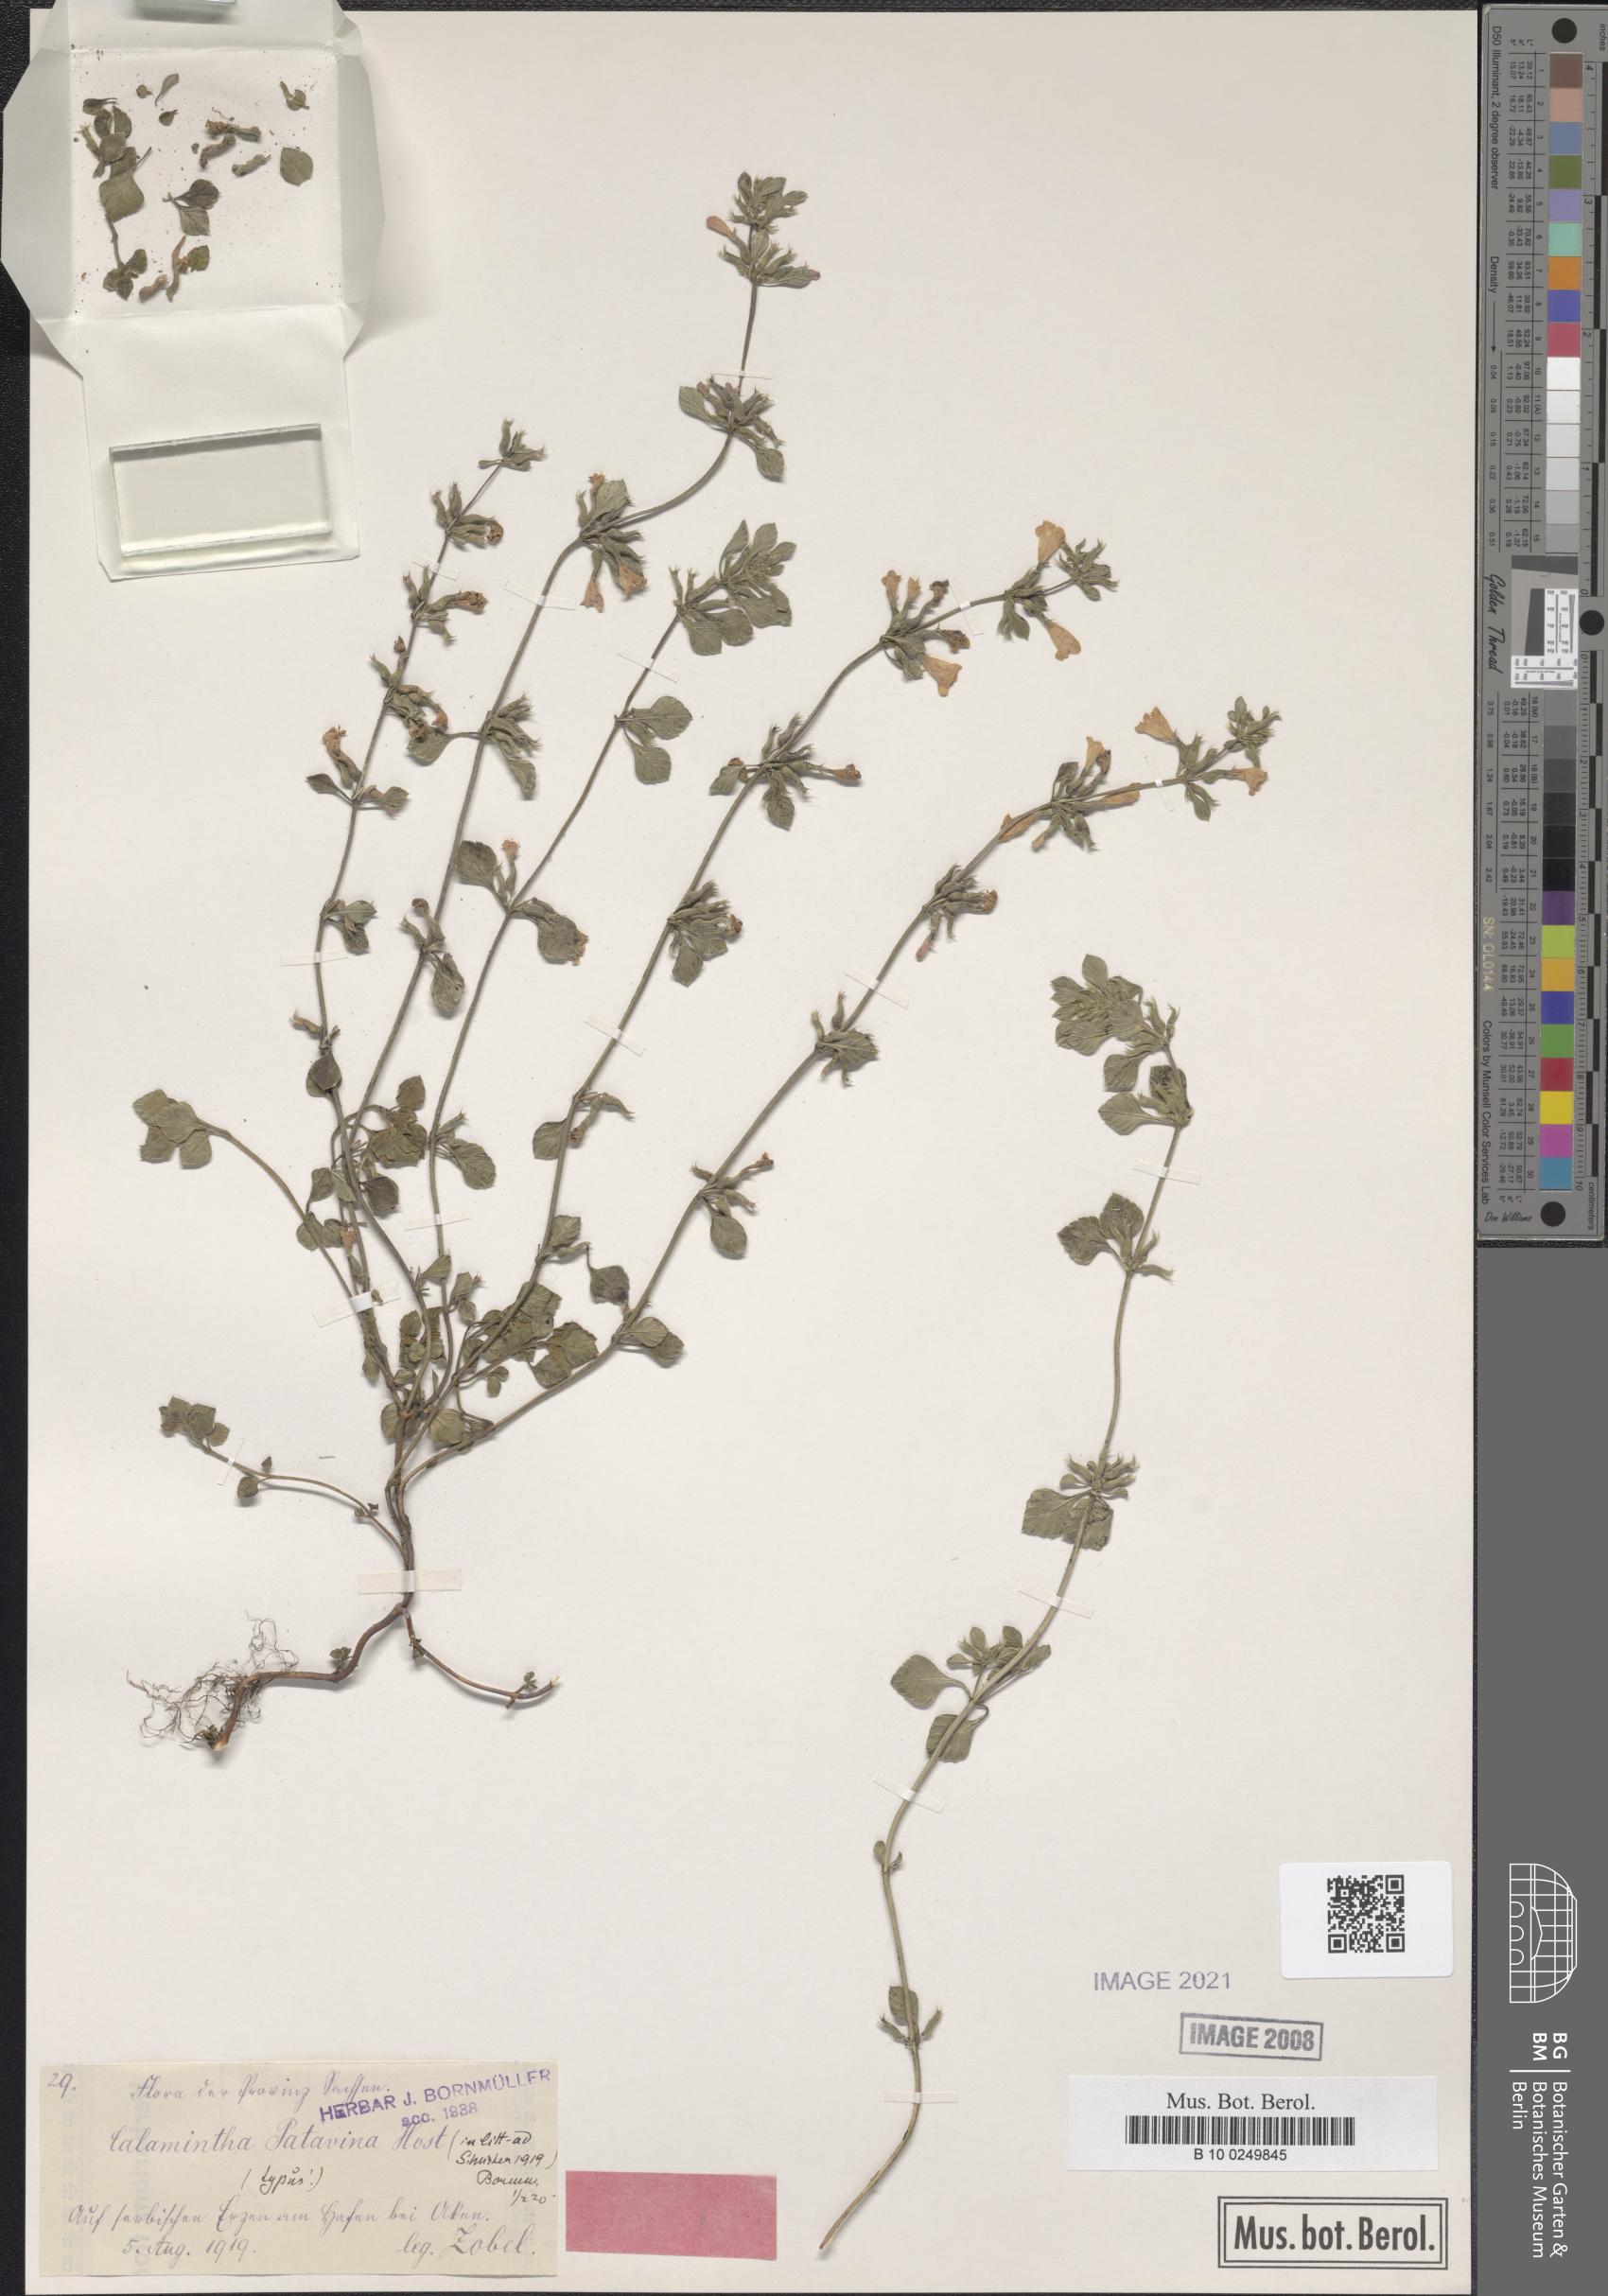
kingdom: Plantae
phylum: Tracheophyta
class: Magnoliopsida
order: Lamiales
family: Lamiaceae
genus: Clinopodium
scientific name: Clinopodium alpinum
